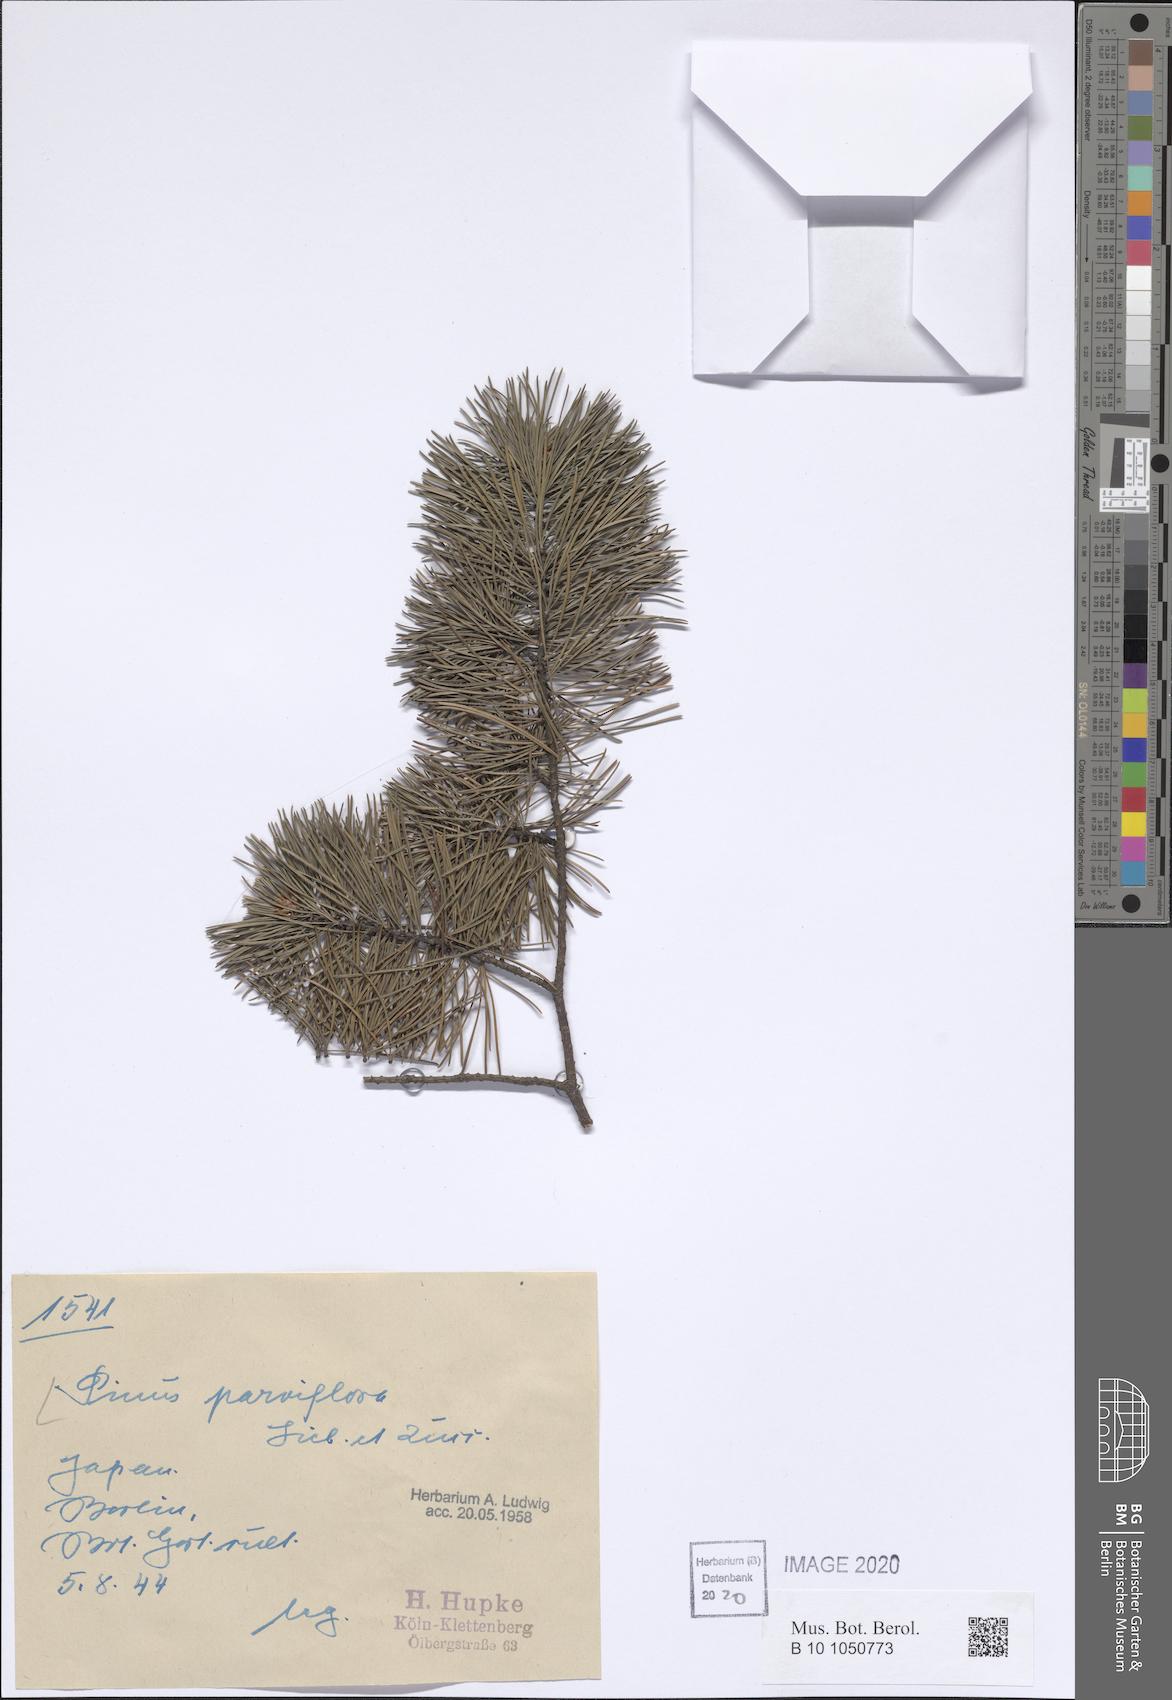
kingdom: Plantae
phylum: Tracheophyta
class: Pinopsida
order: Pinales
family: Pinaceae
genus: Pinus
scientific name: Pinus parviflora
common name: Japanese white pine
